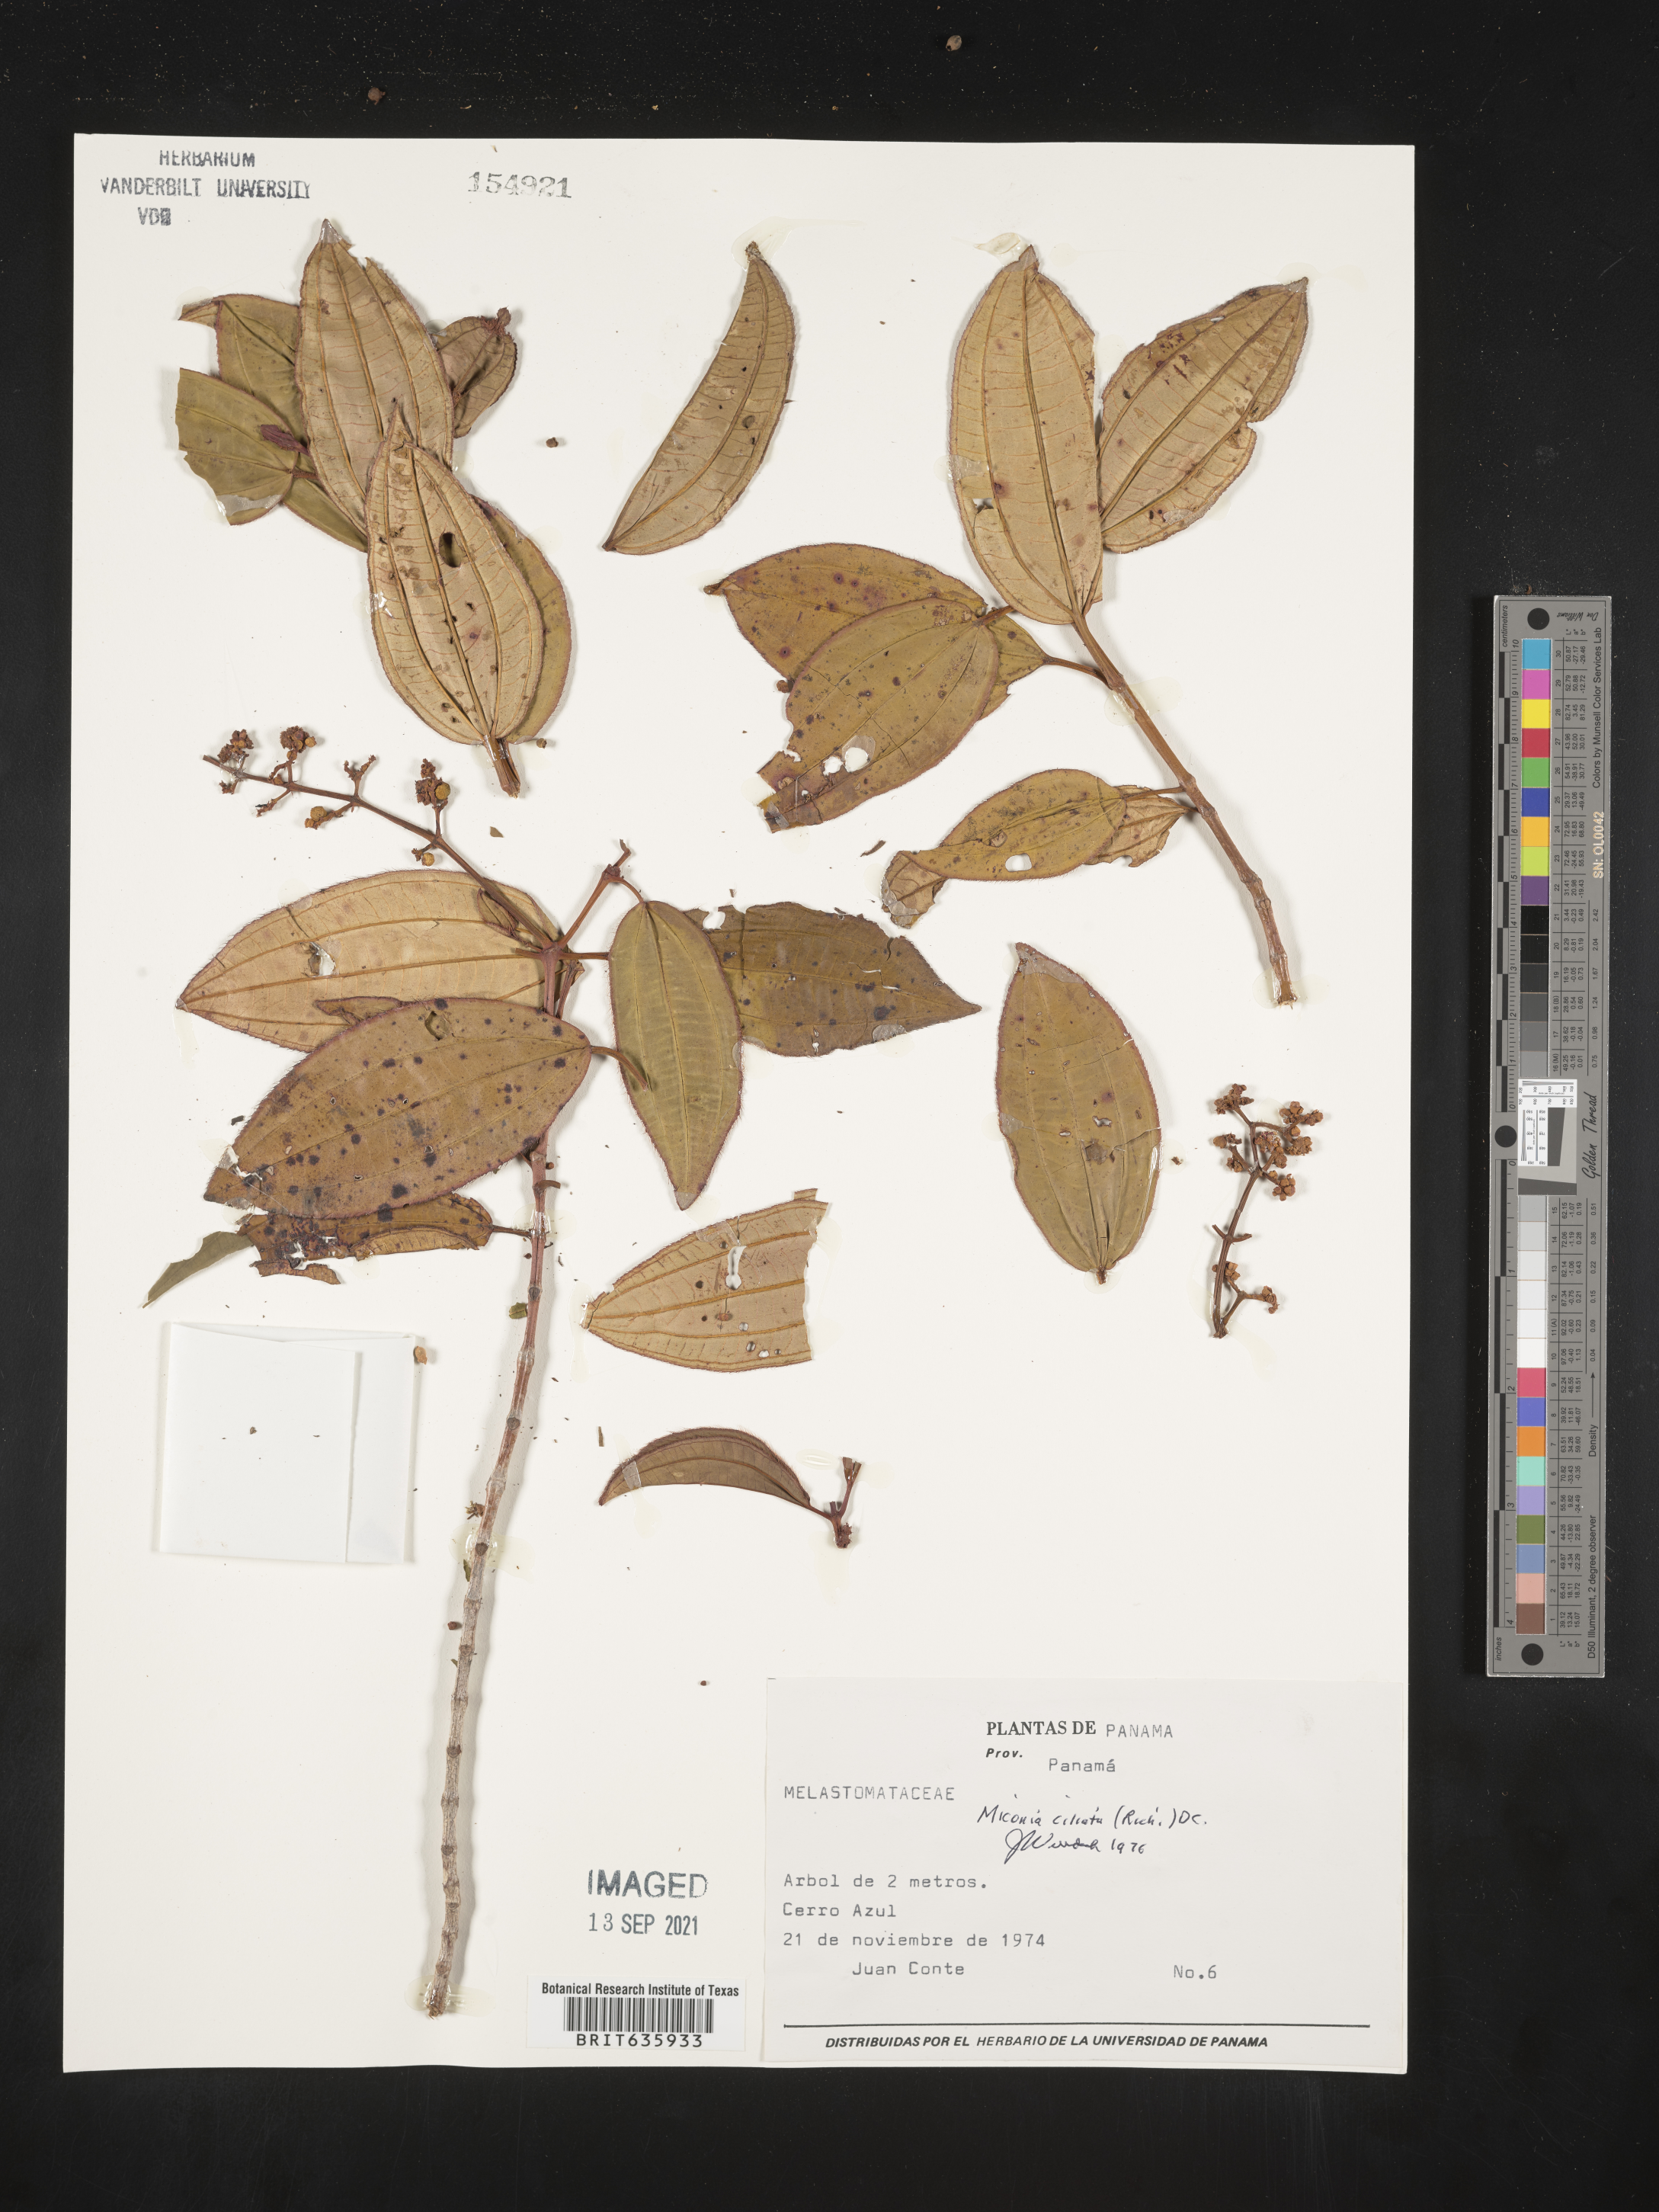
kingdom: Plantae
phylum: Tracheophyta
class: Magnoliopsida
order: Myrtales
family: Melastomataceae
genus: Miconia
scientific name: Miconia
